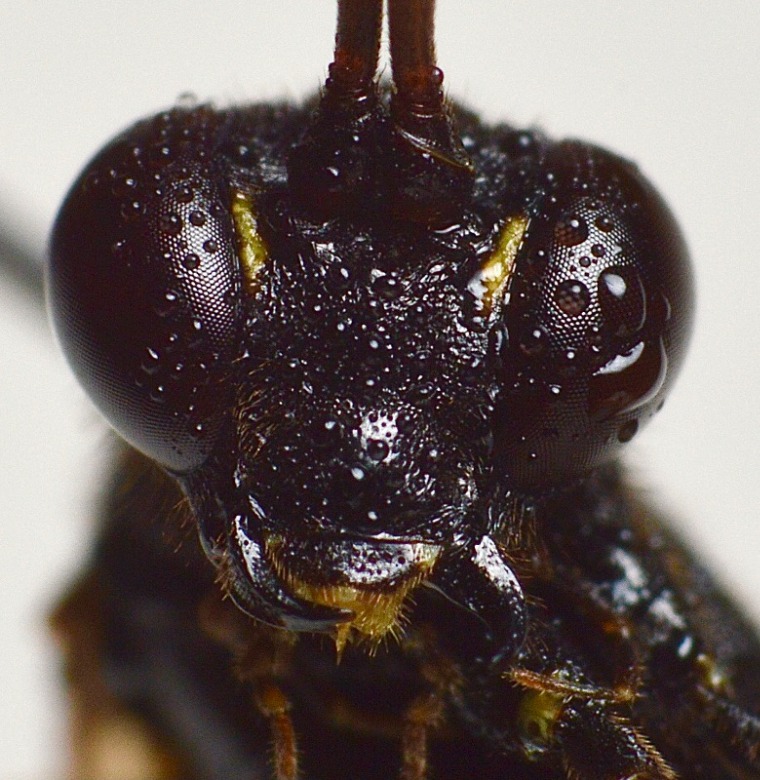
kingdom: Animalia
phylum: Arthropoda
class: Insecta
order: Hymenoptera
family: Ichneumonidae
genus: Acroricnus
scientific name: Acroricnus stylator
